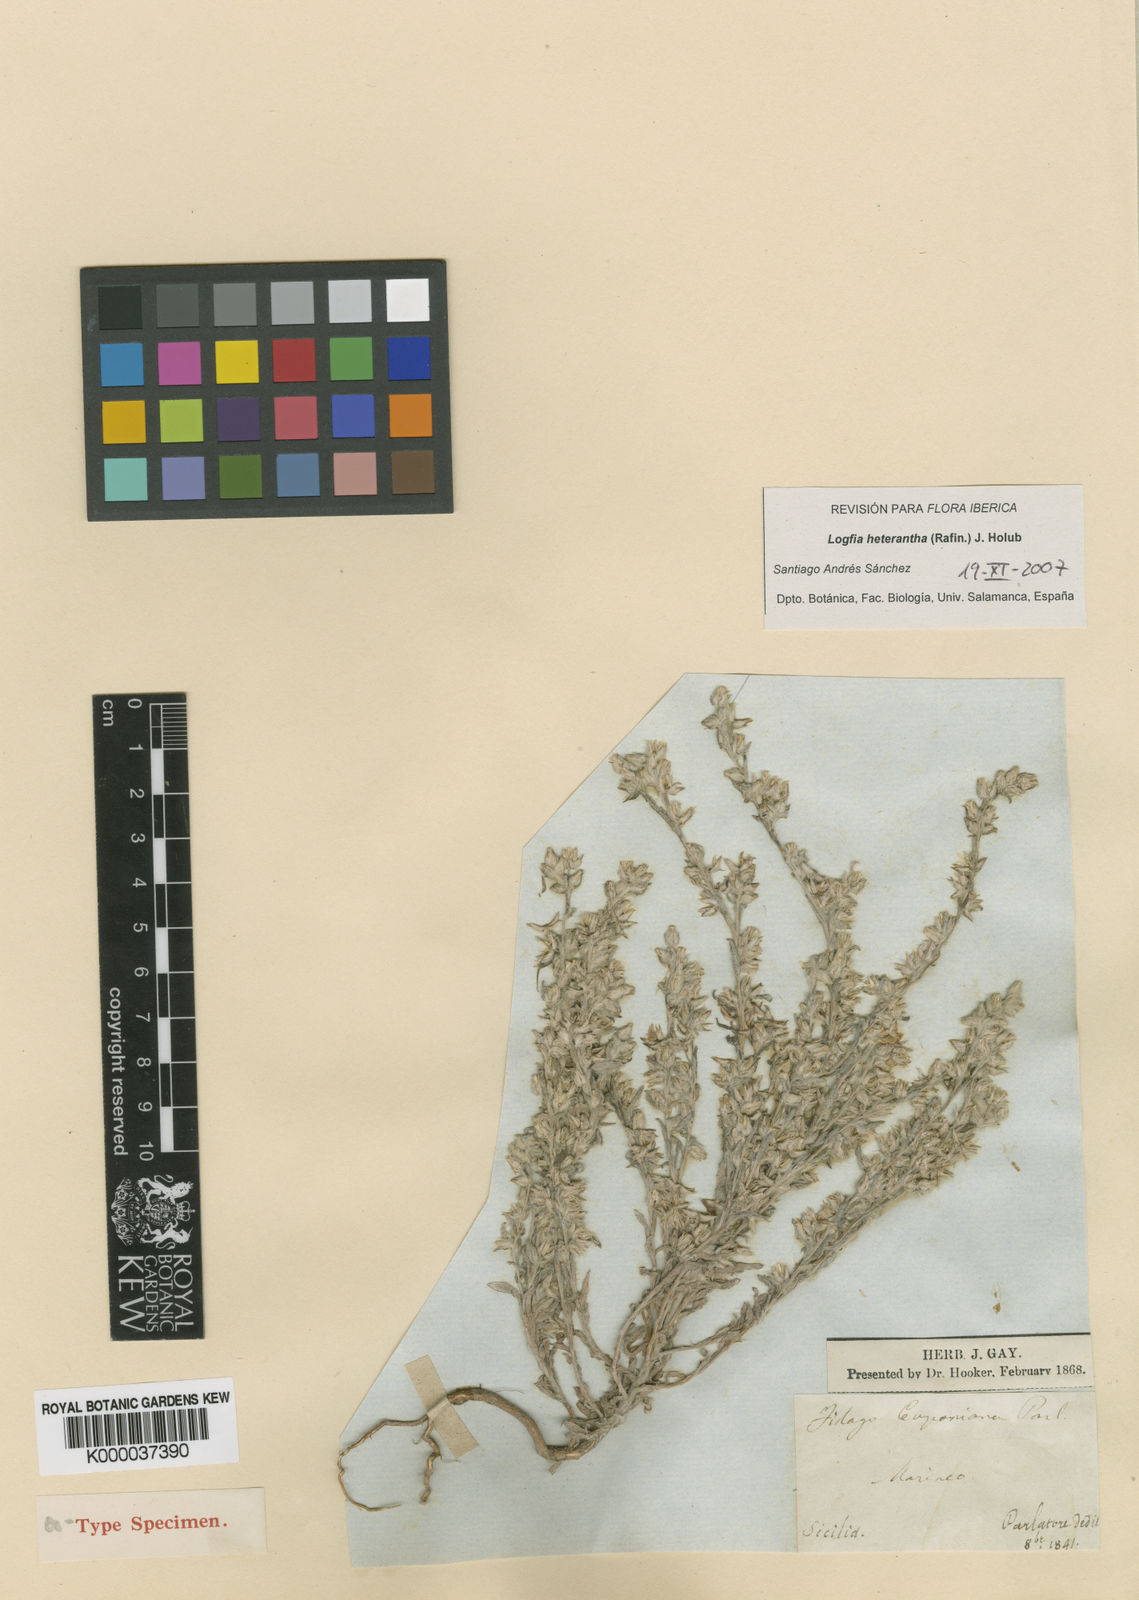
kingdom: Plantae
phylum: Tracheophyta
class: Magnoliopsida
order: Asterales
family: Asteraceae
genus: Logfia
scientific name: Logfia heterantha
